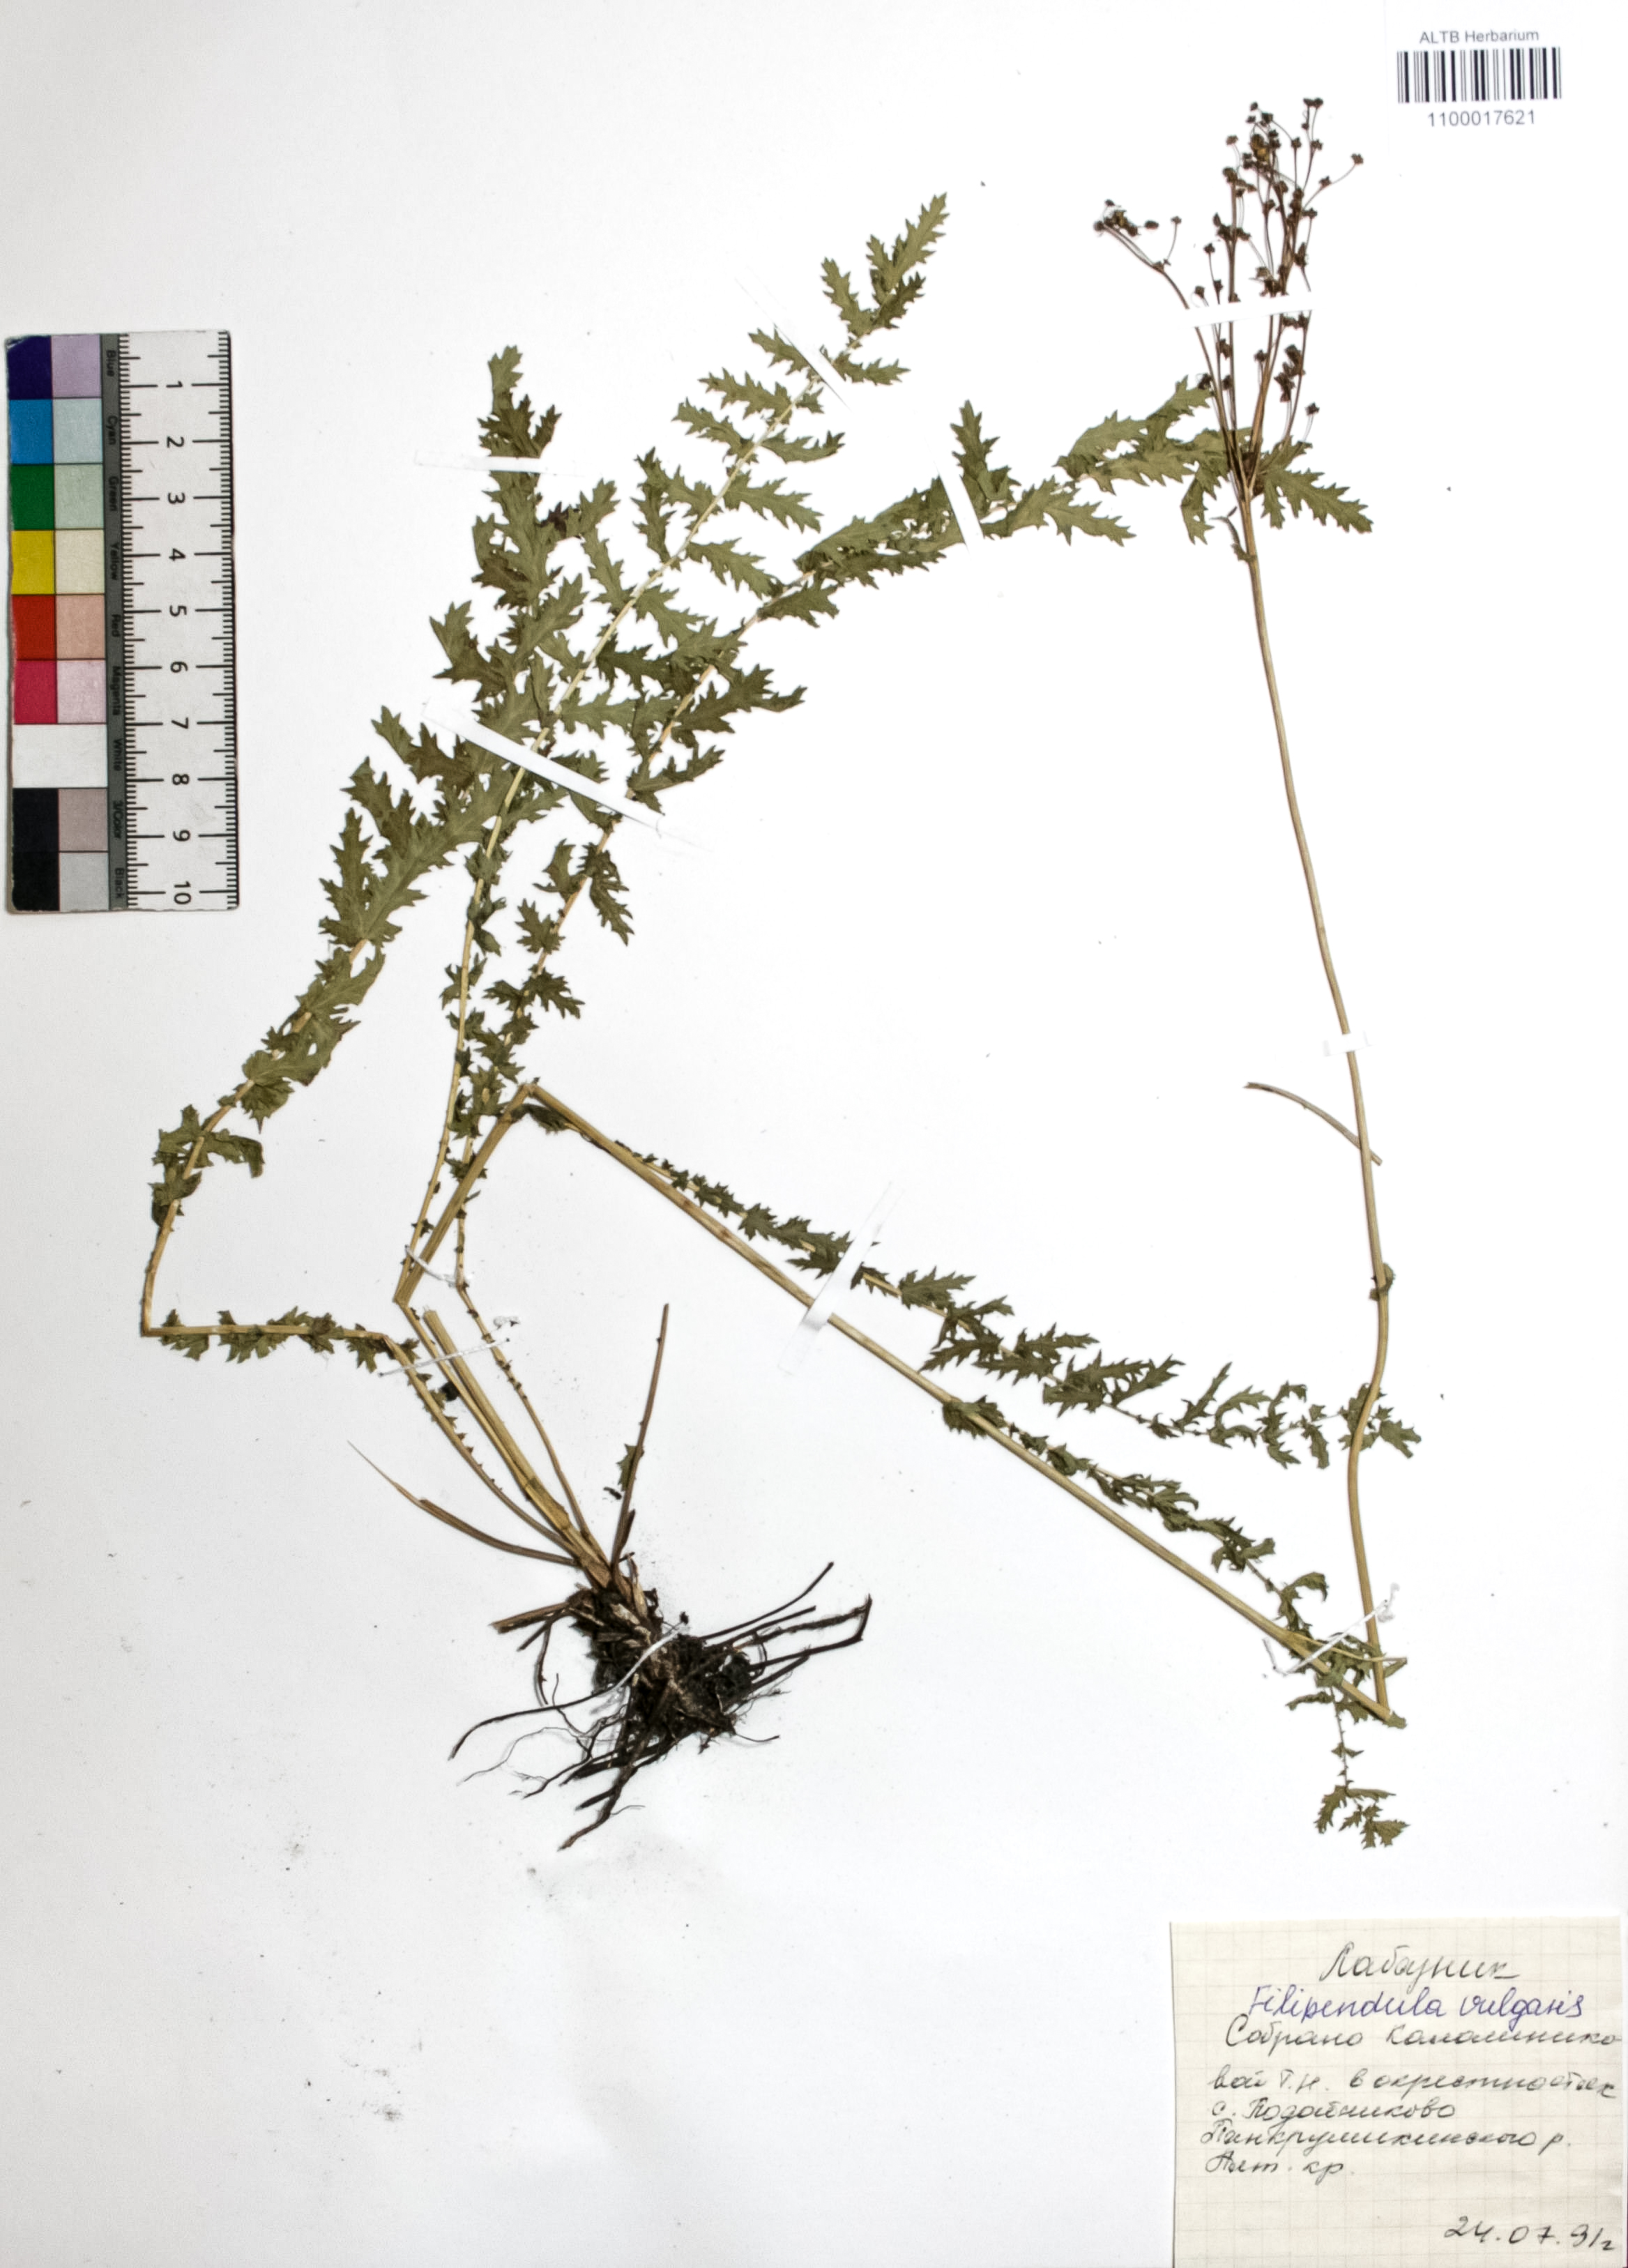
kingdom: Plantae
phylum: Tracheophyta
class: Magnoliopsida
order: Rosales
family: Rosaceae
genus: Filipendula
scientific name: Filipendula vulgaris
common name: Dropwort
